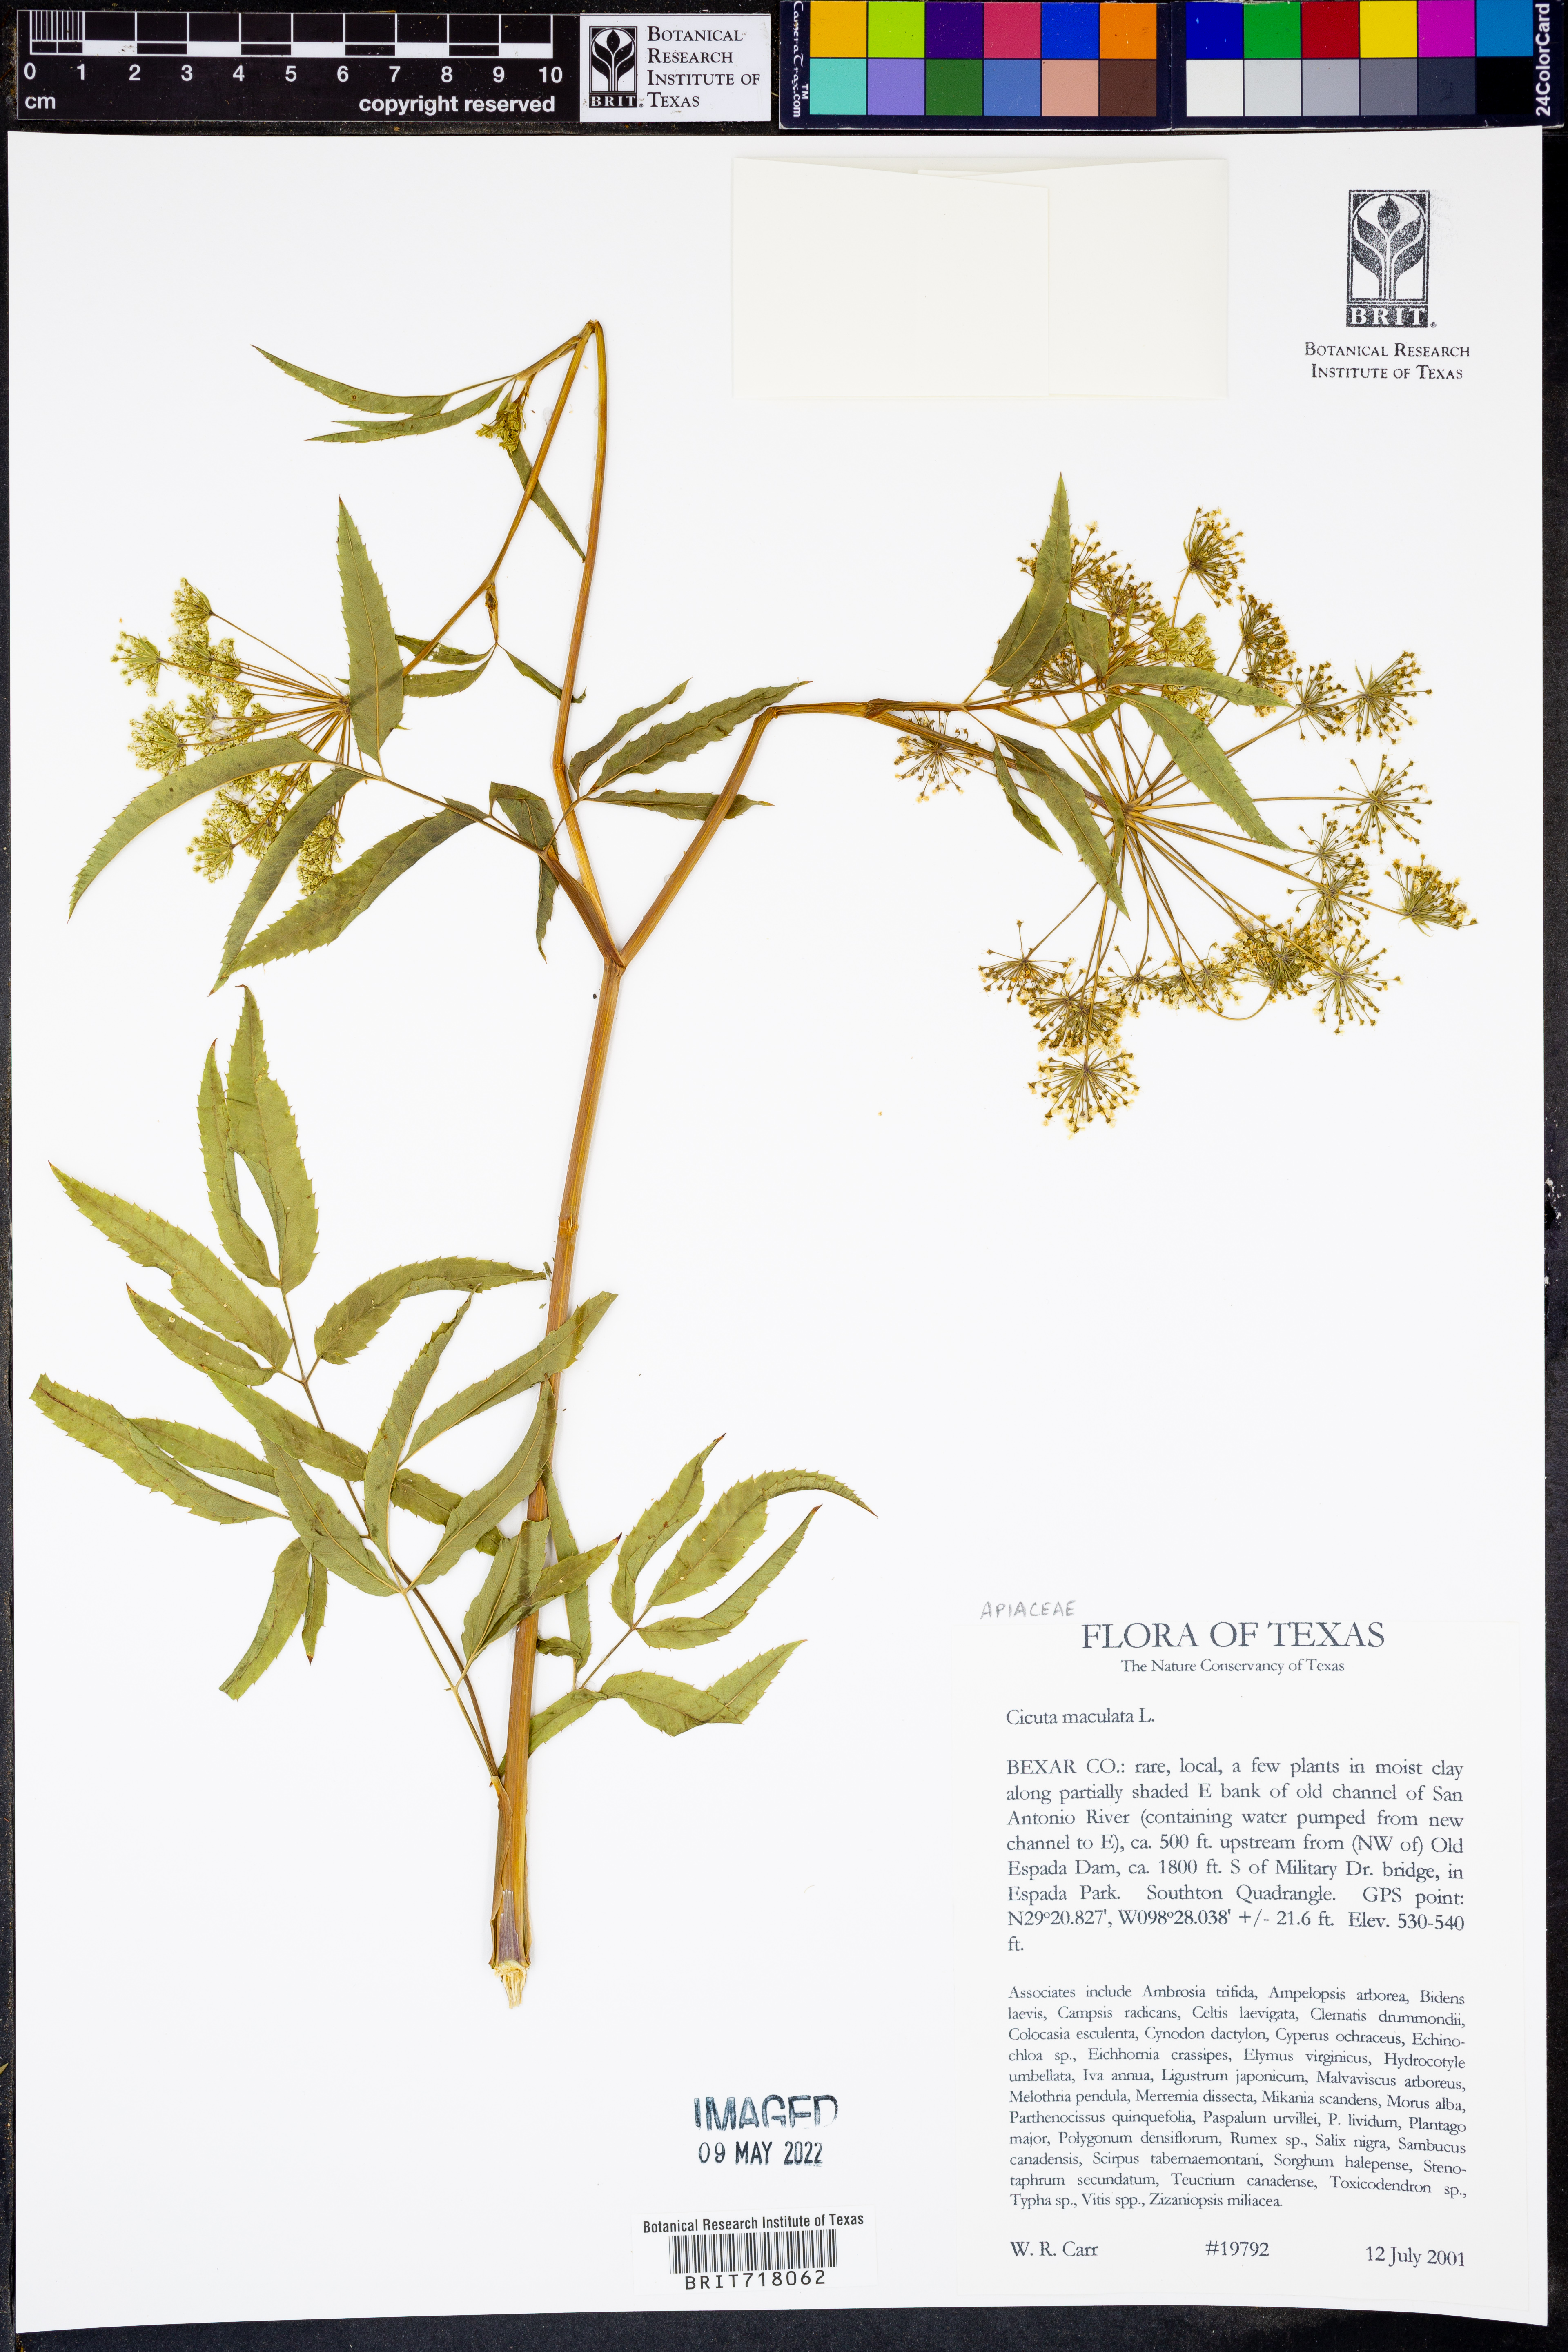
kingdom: Plantae
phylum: Tracheophyta
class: Magnoliopsida
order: Apiales
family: Apiaceae
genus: Cicuta
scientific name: Cicuta maculata
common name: Spotted cowbane
